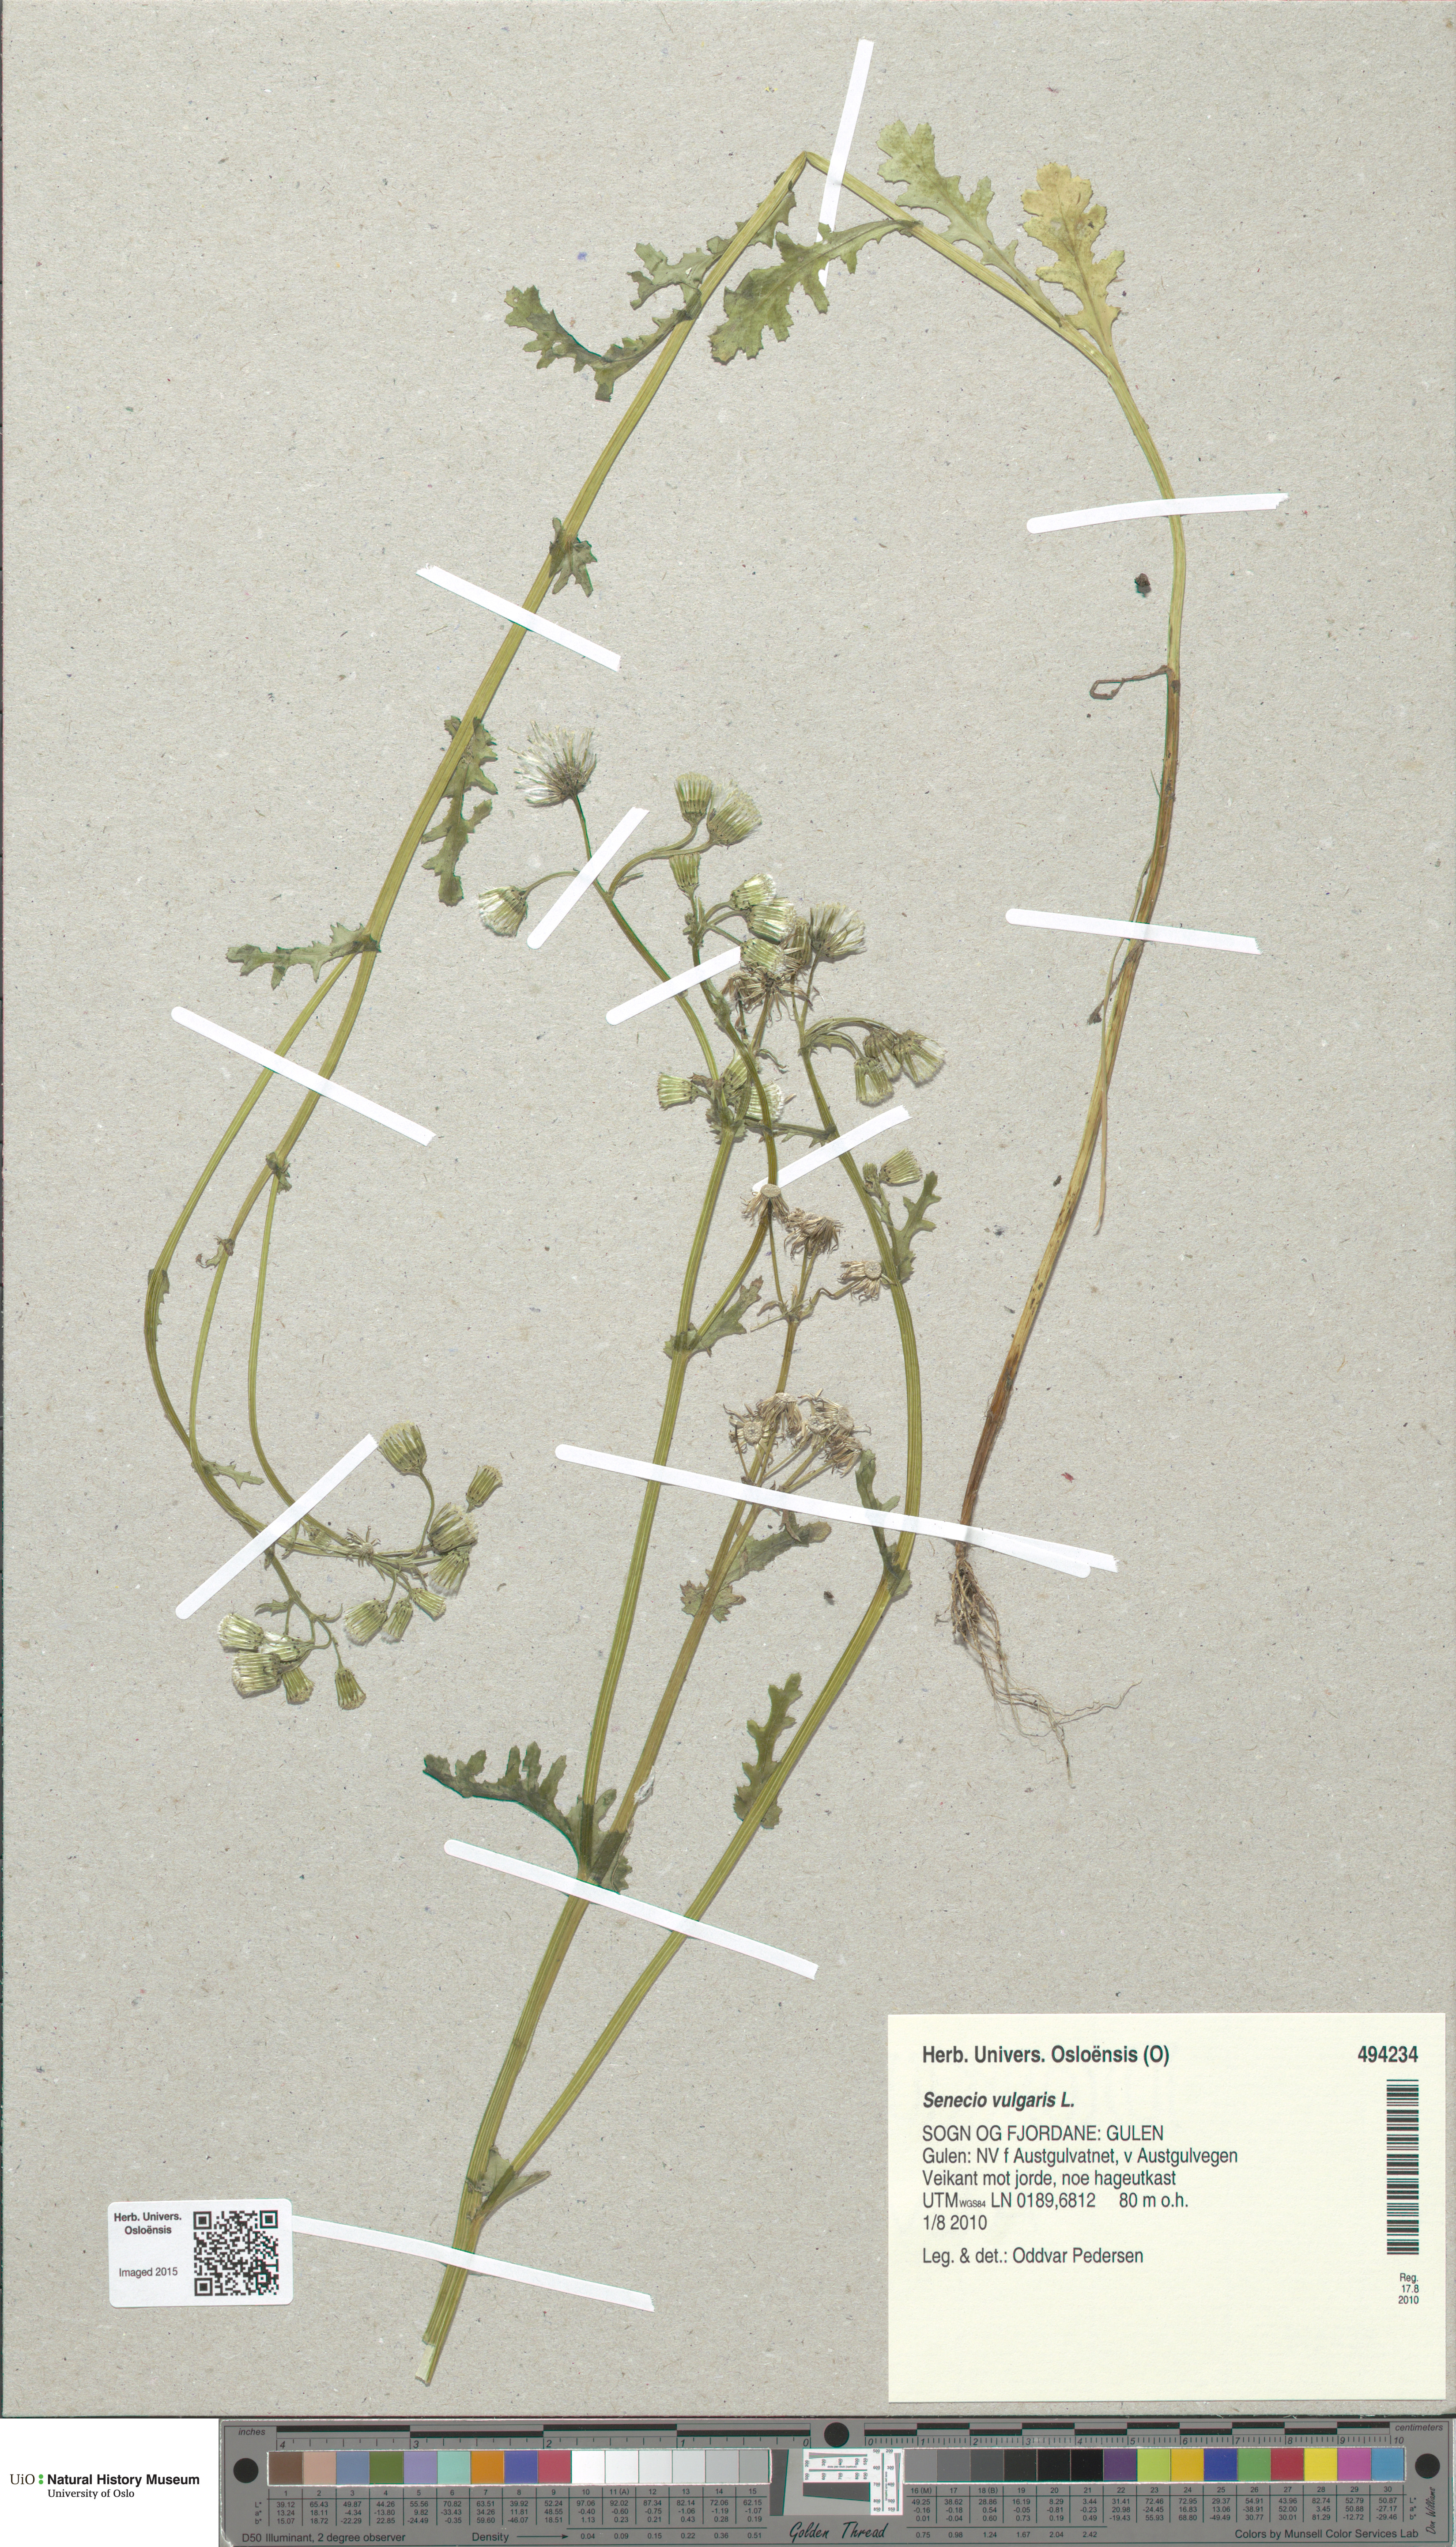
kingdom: Plantae
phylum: Tracheophyta
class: Magnoliopsida
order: Asterales
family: Asteraceae
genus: Senecio
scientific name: Senecio vulgaris
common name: Old-man-in-the-spring
